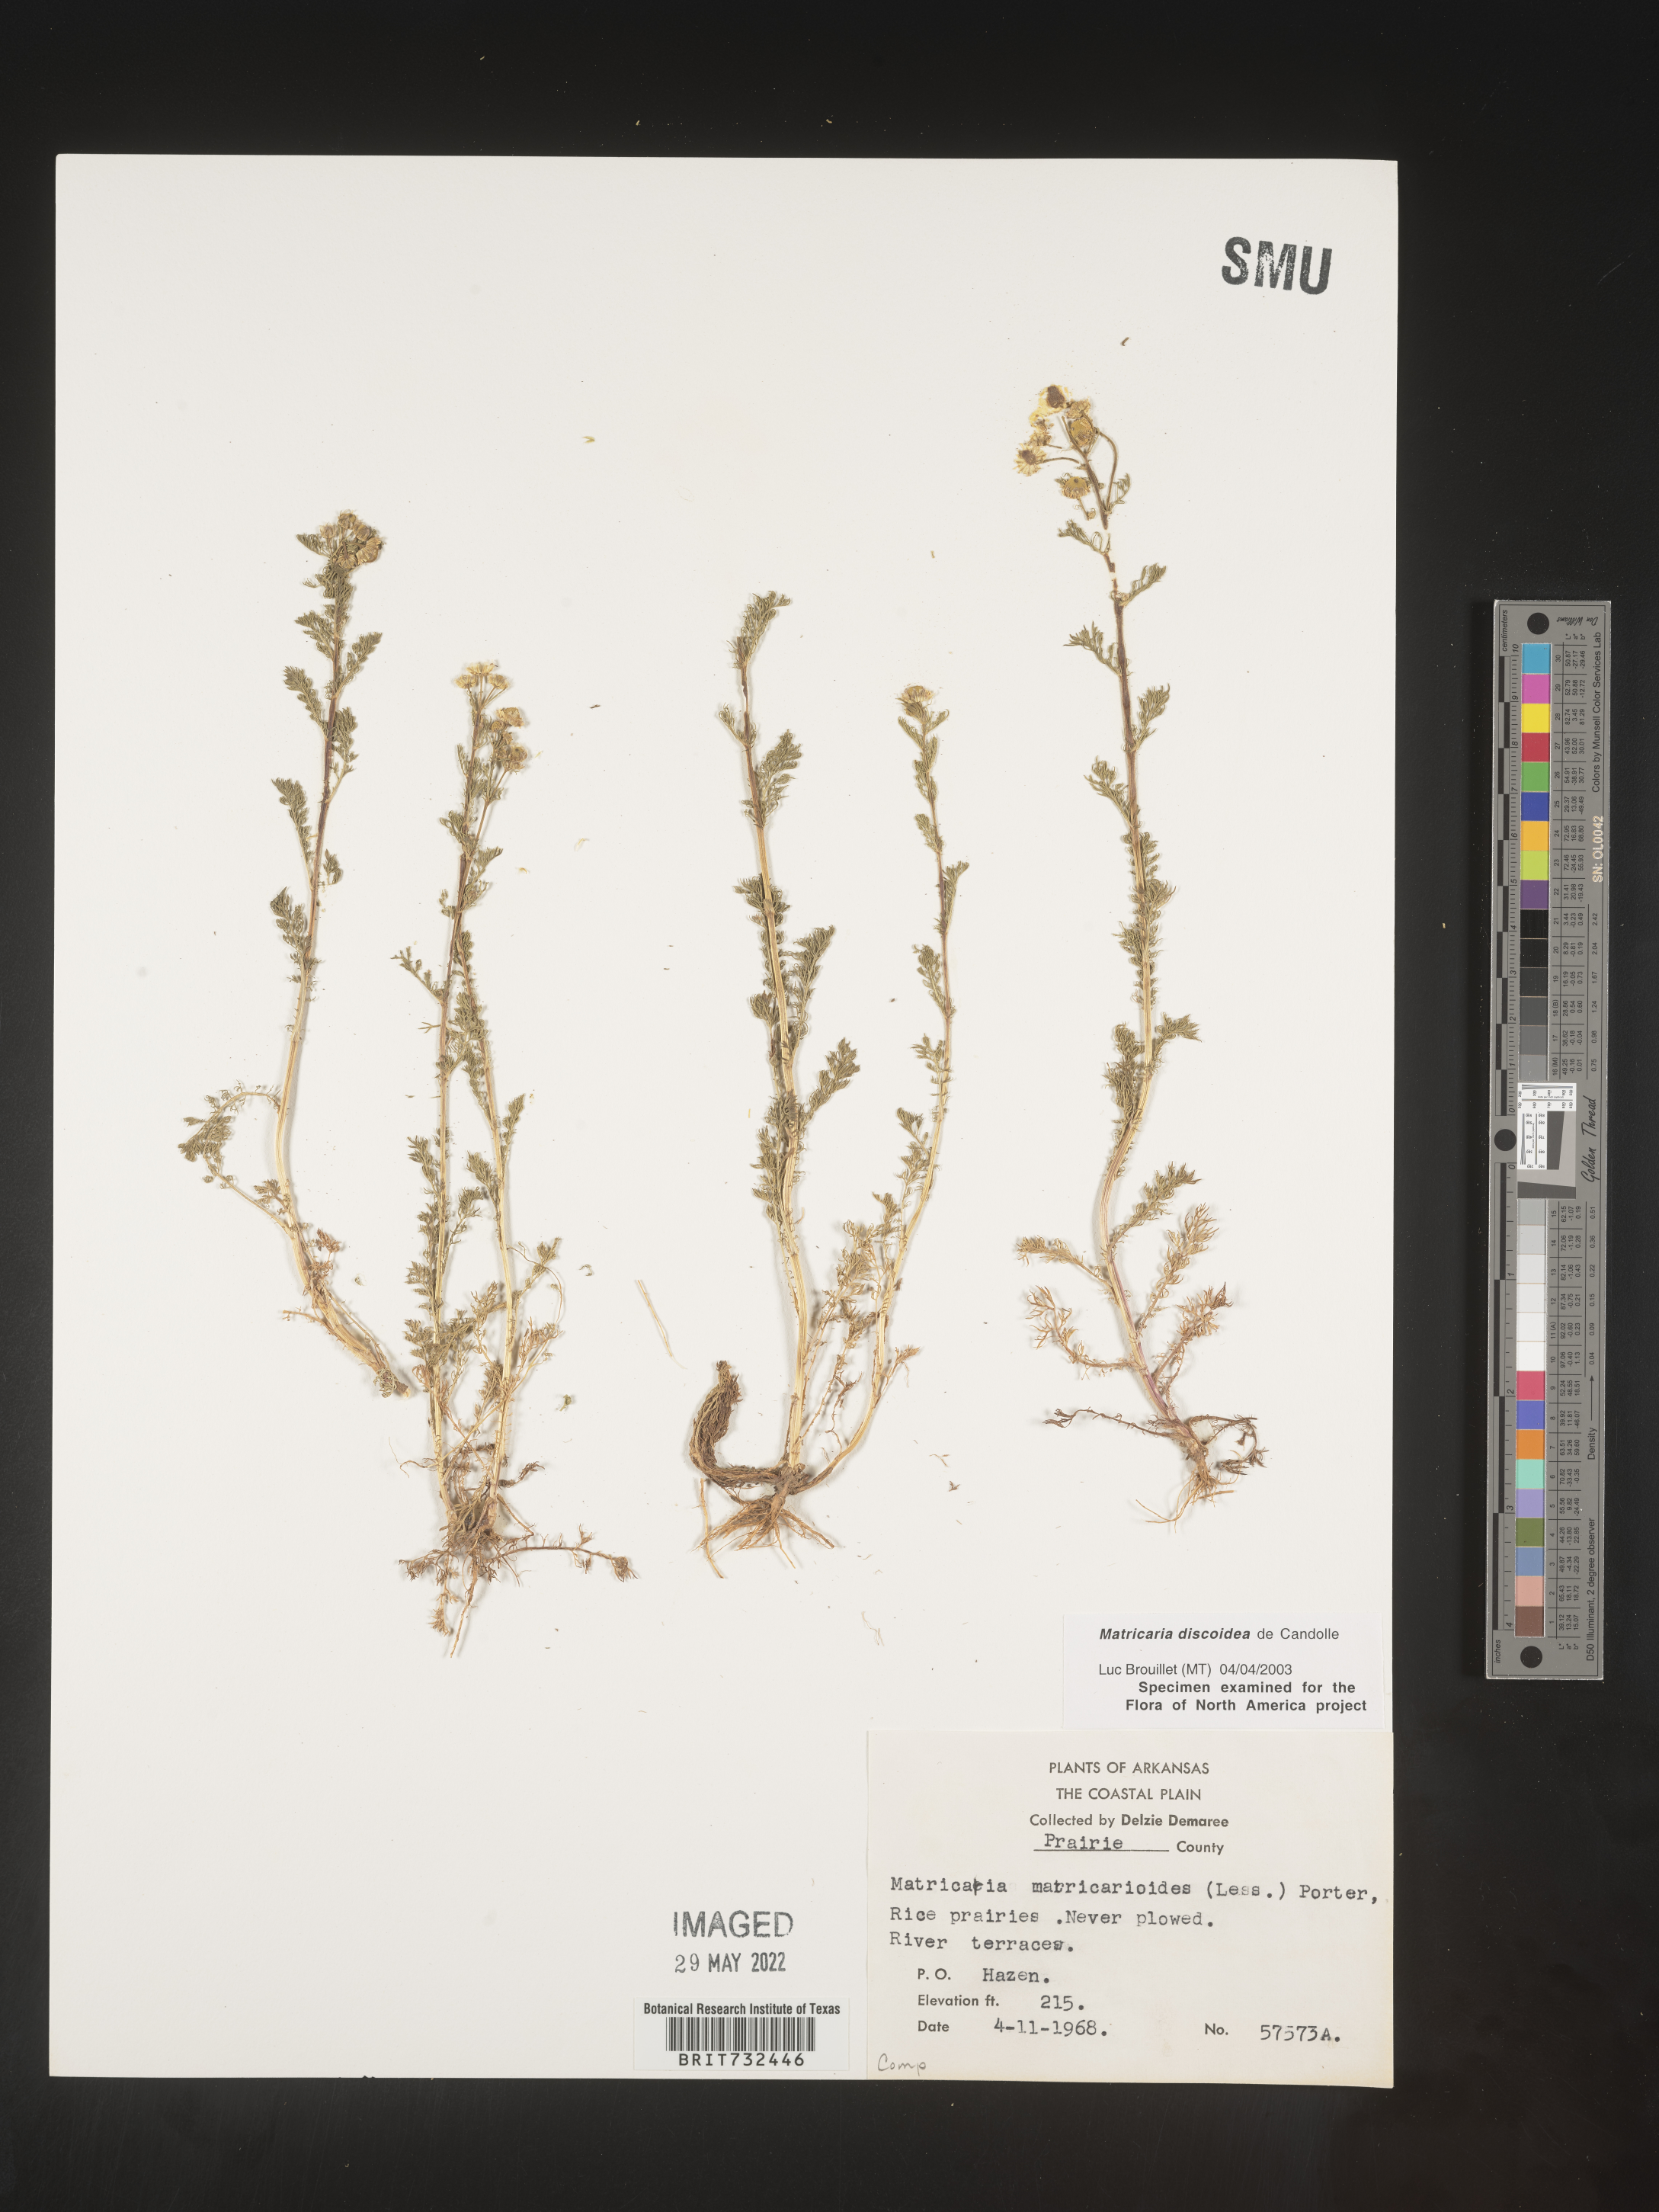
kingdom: Plantae
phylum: Tracheophyta
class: Magnoliopsida
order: Asterales
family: Asteraceae
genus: Matricaria
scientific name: Matricaria discoidea
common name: Disc mayweed
